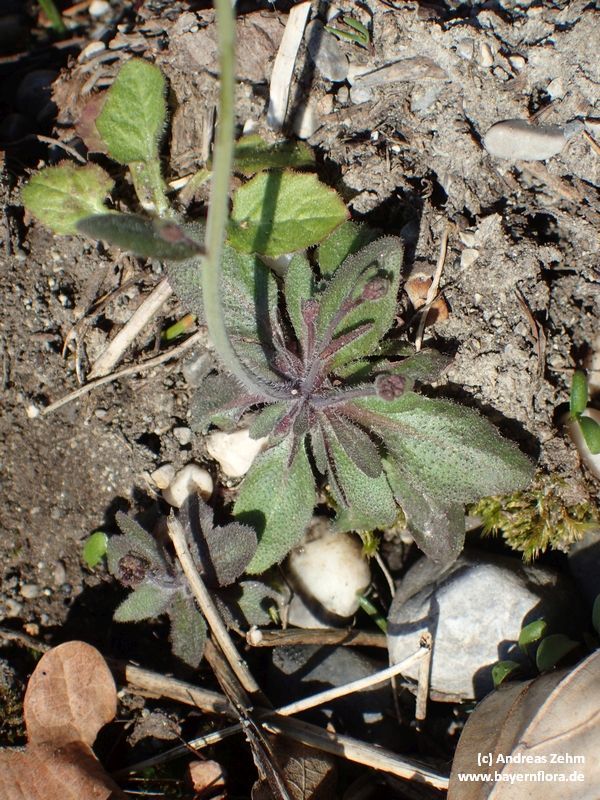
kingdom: Plantae
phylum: Tracheophyta
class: Magnoliopsida
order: Brassicales
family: Brassicaceae
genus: Arabidopsis
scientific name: Arabidopsis thaliana
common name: Thale cress
